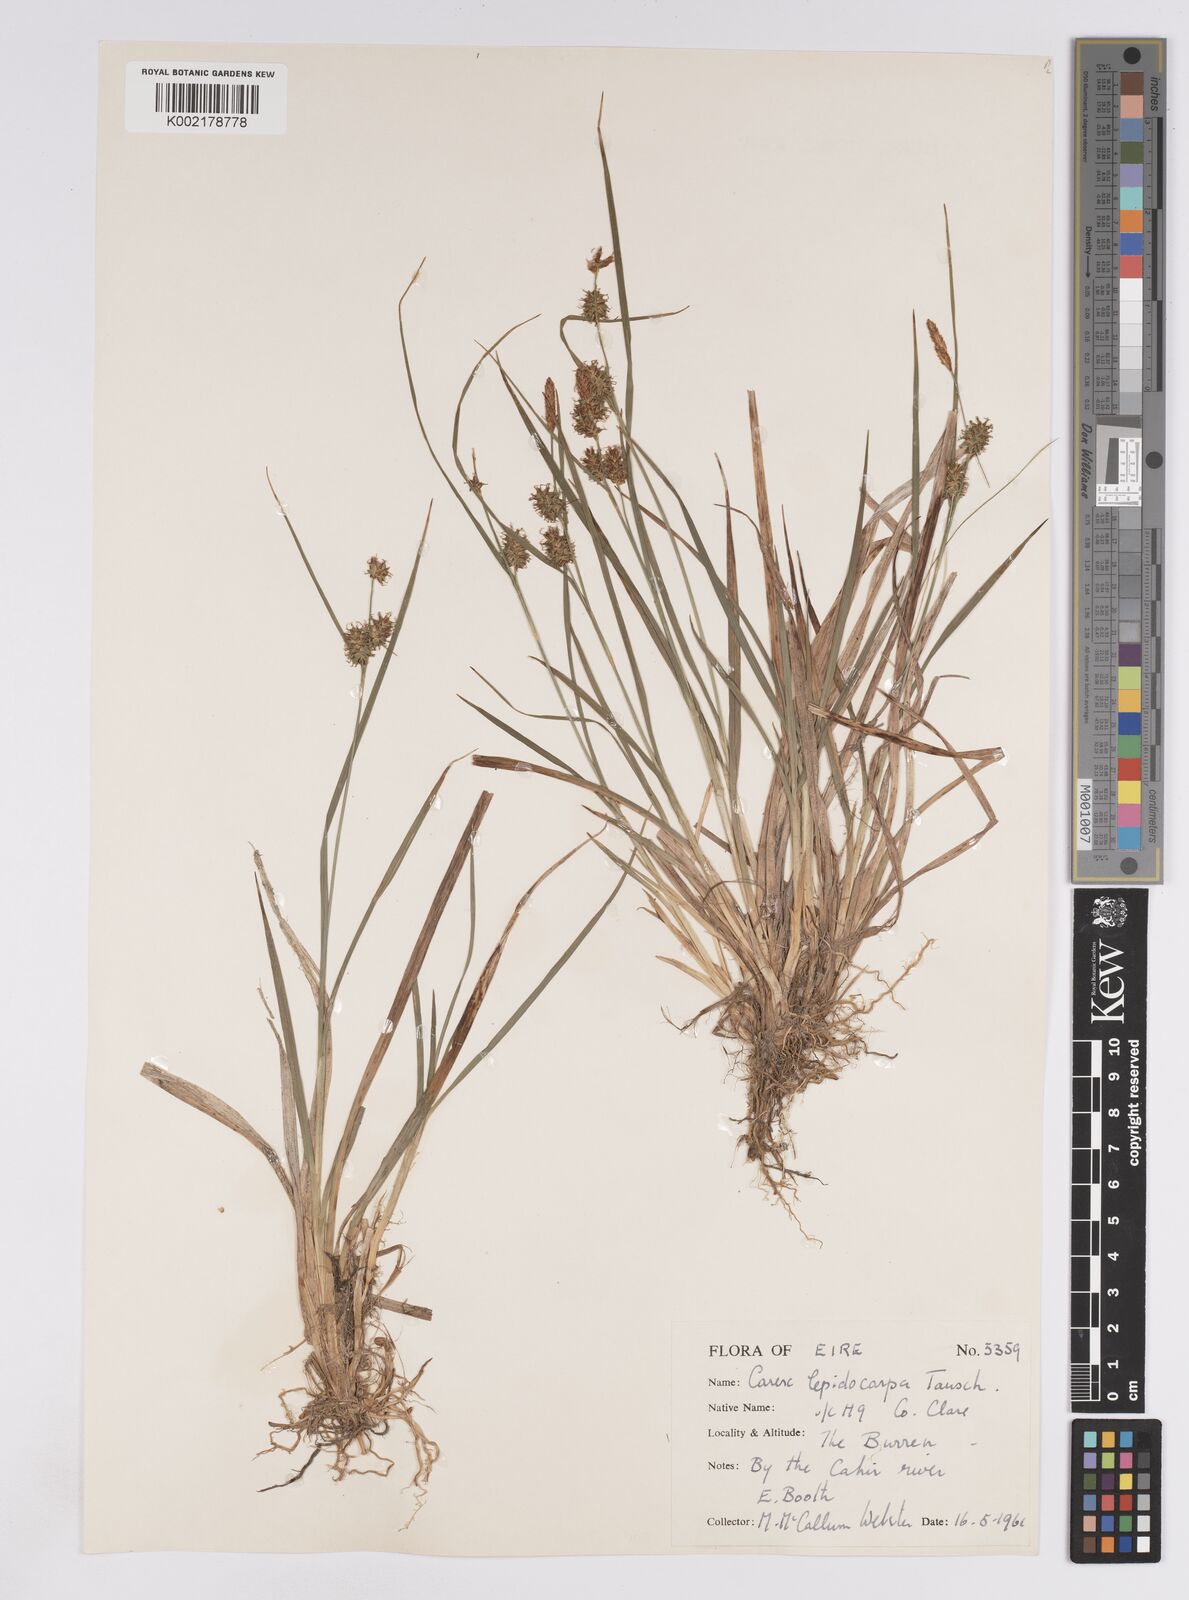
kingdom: Plantae
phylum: Tracheophyta
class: Liliopsida
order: Poales
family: Cyperaceae
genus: Carex
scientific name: Carex lepidocarpa
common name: Long-stalked yellow-sedge
